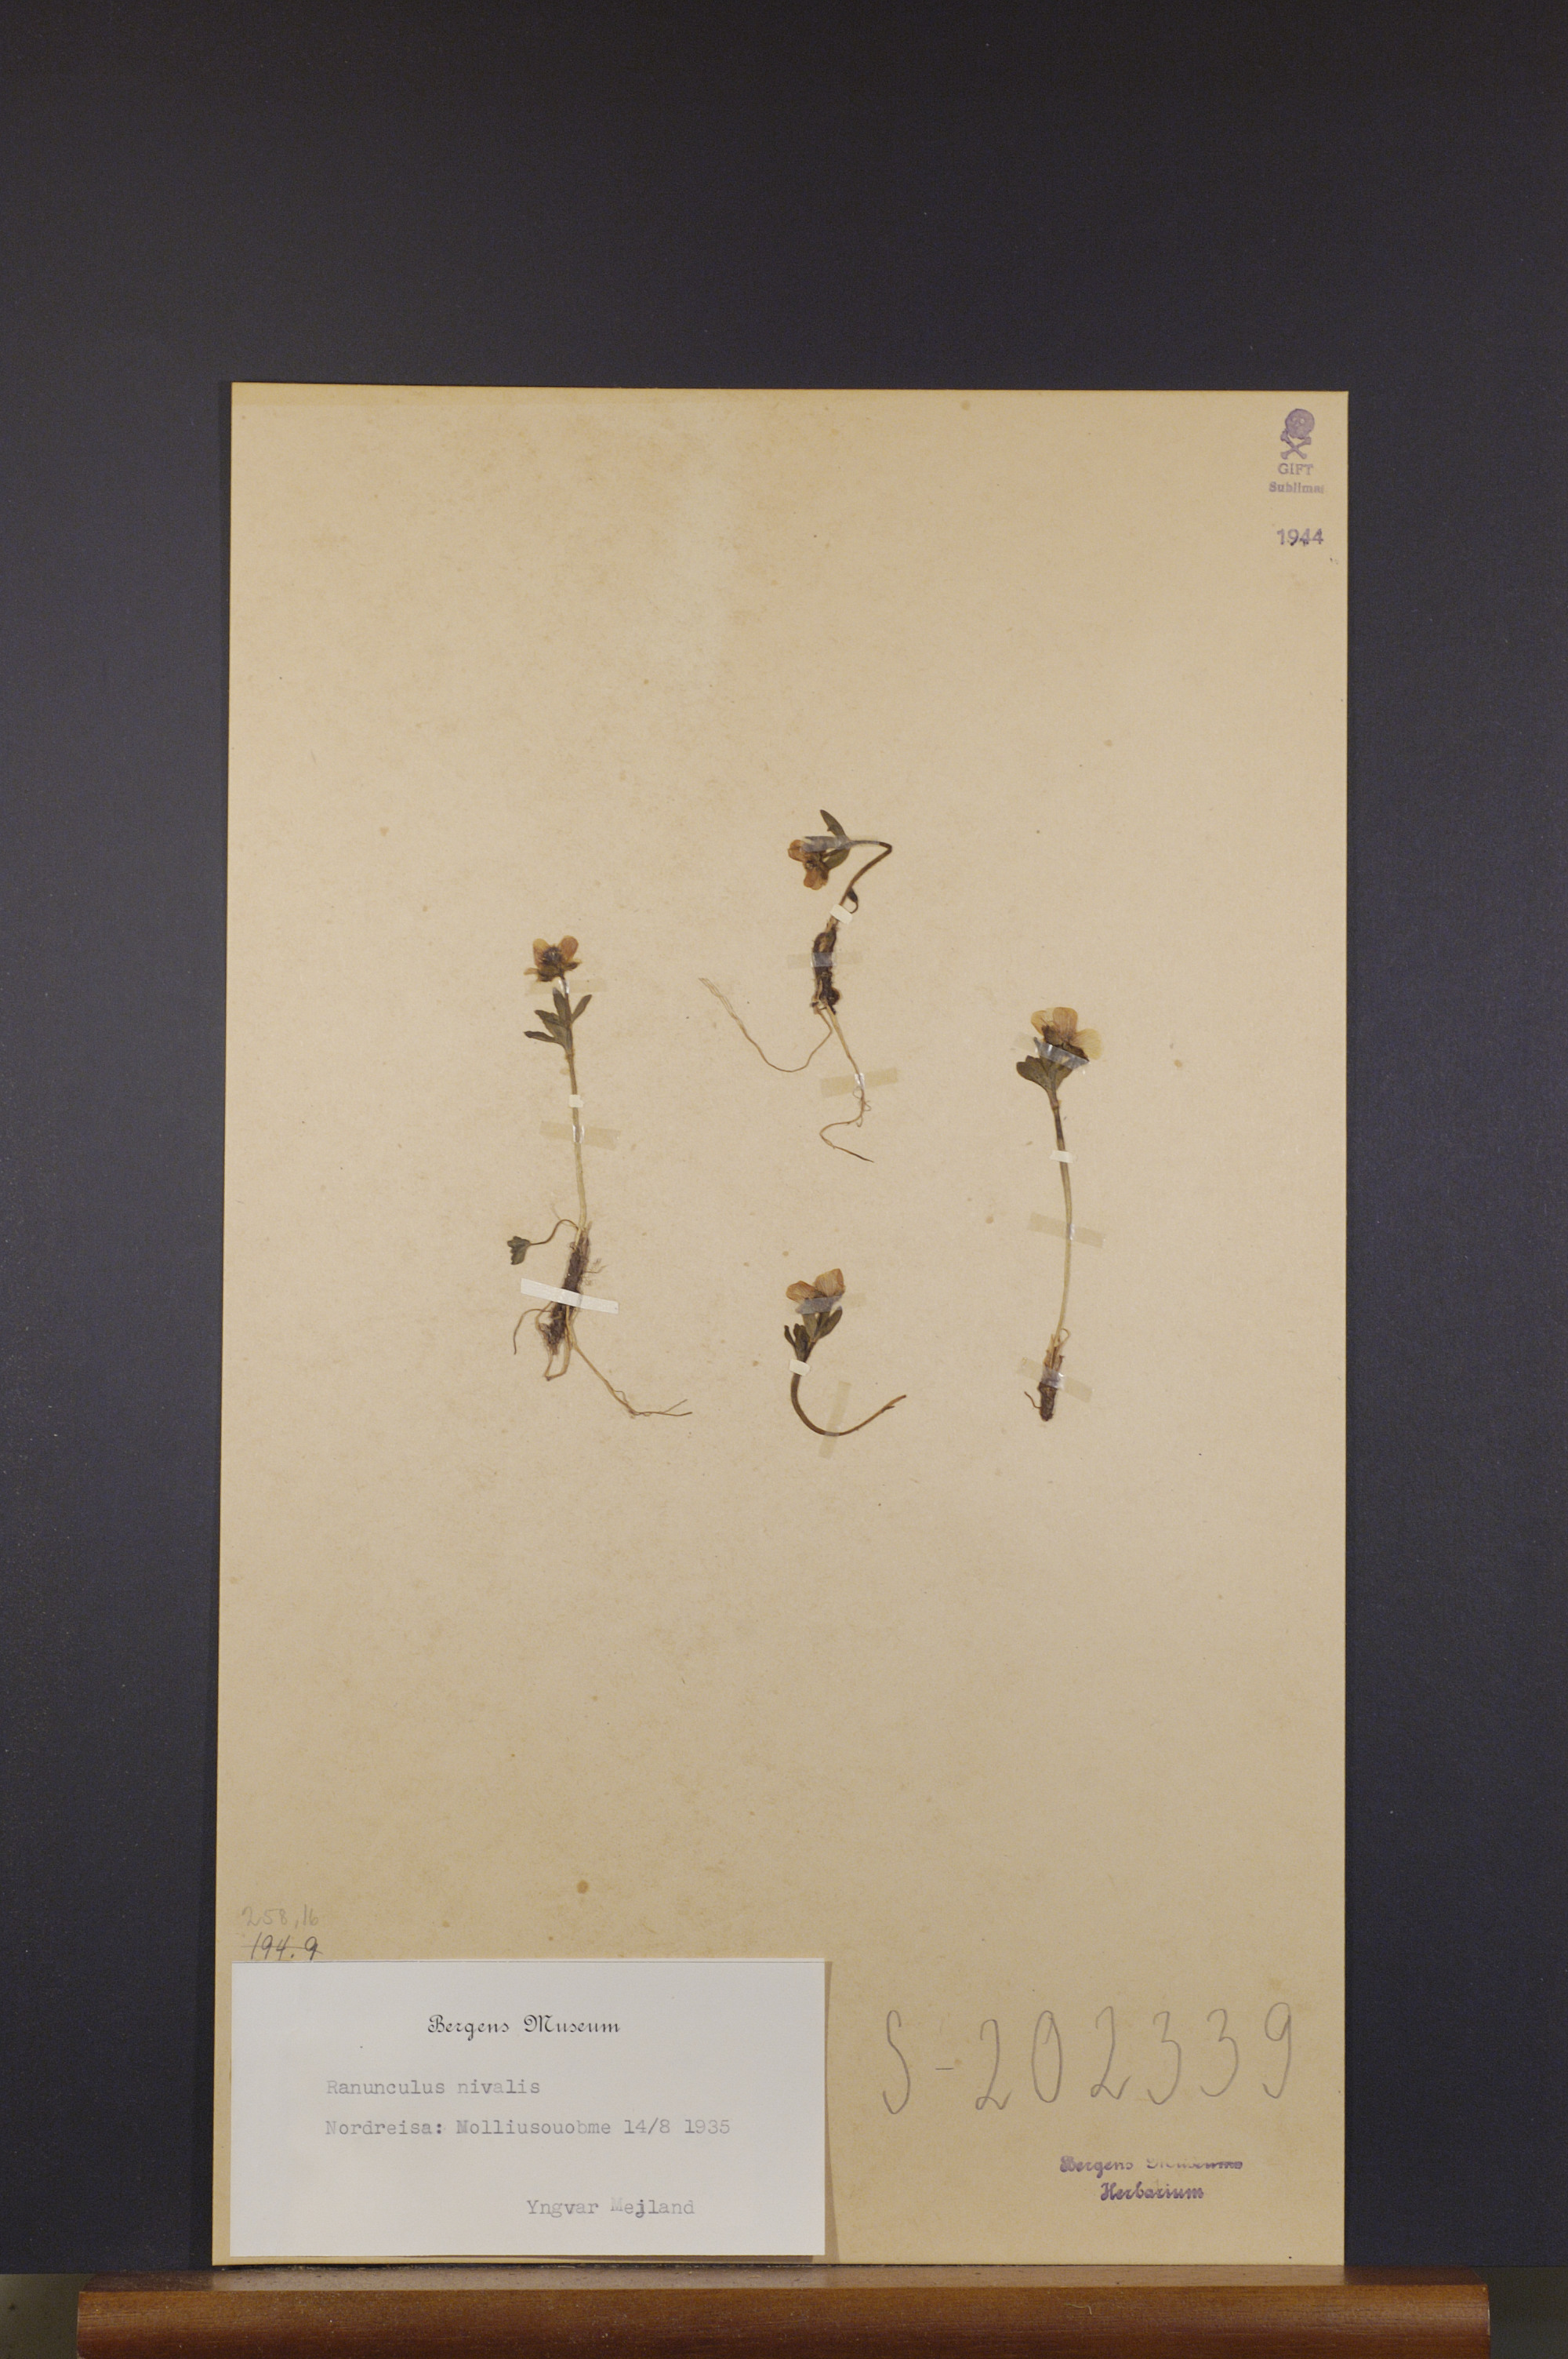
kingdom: Plantae
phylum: Tracheophyta
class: Magnoliopsida
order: Ranunculales
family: Ranunculaceae
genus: Ranunculus
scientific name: Ranunculus nivalis
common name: Snow buttercup
